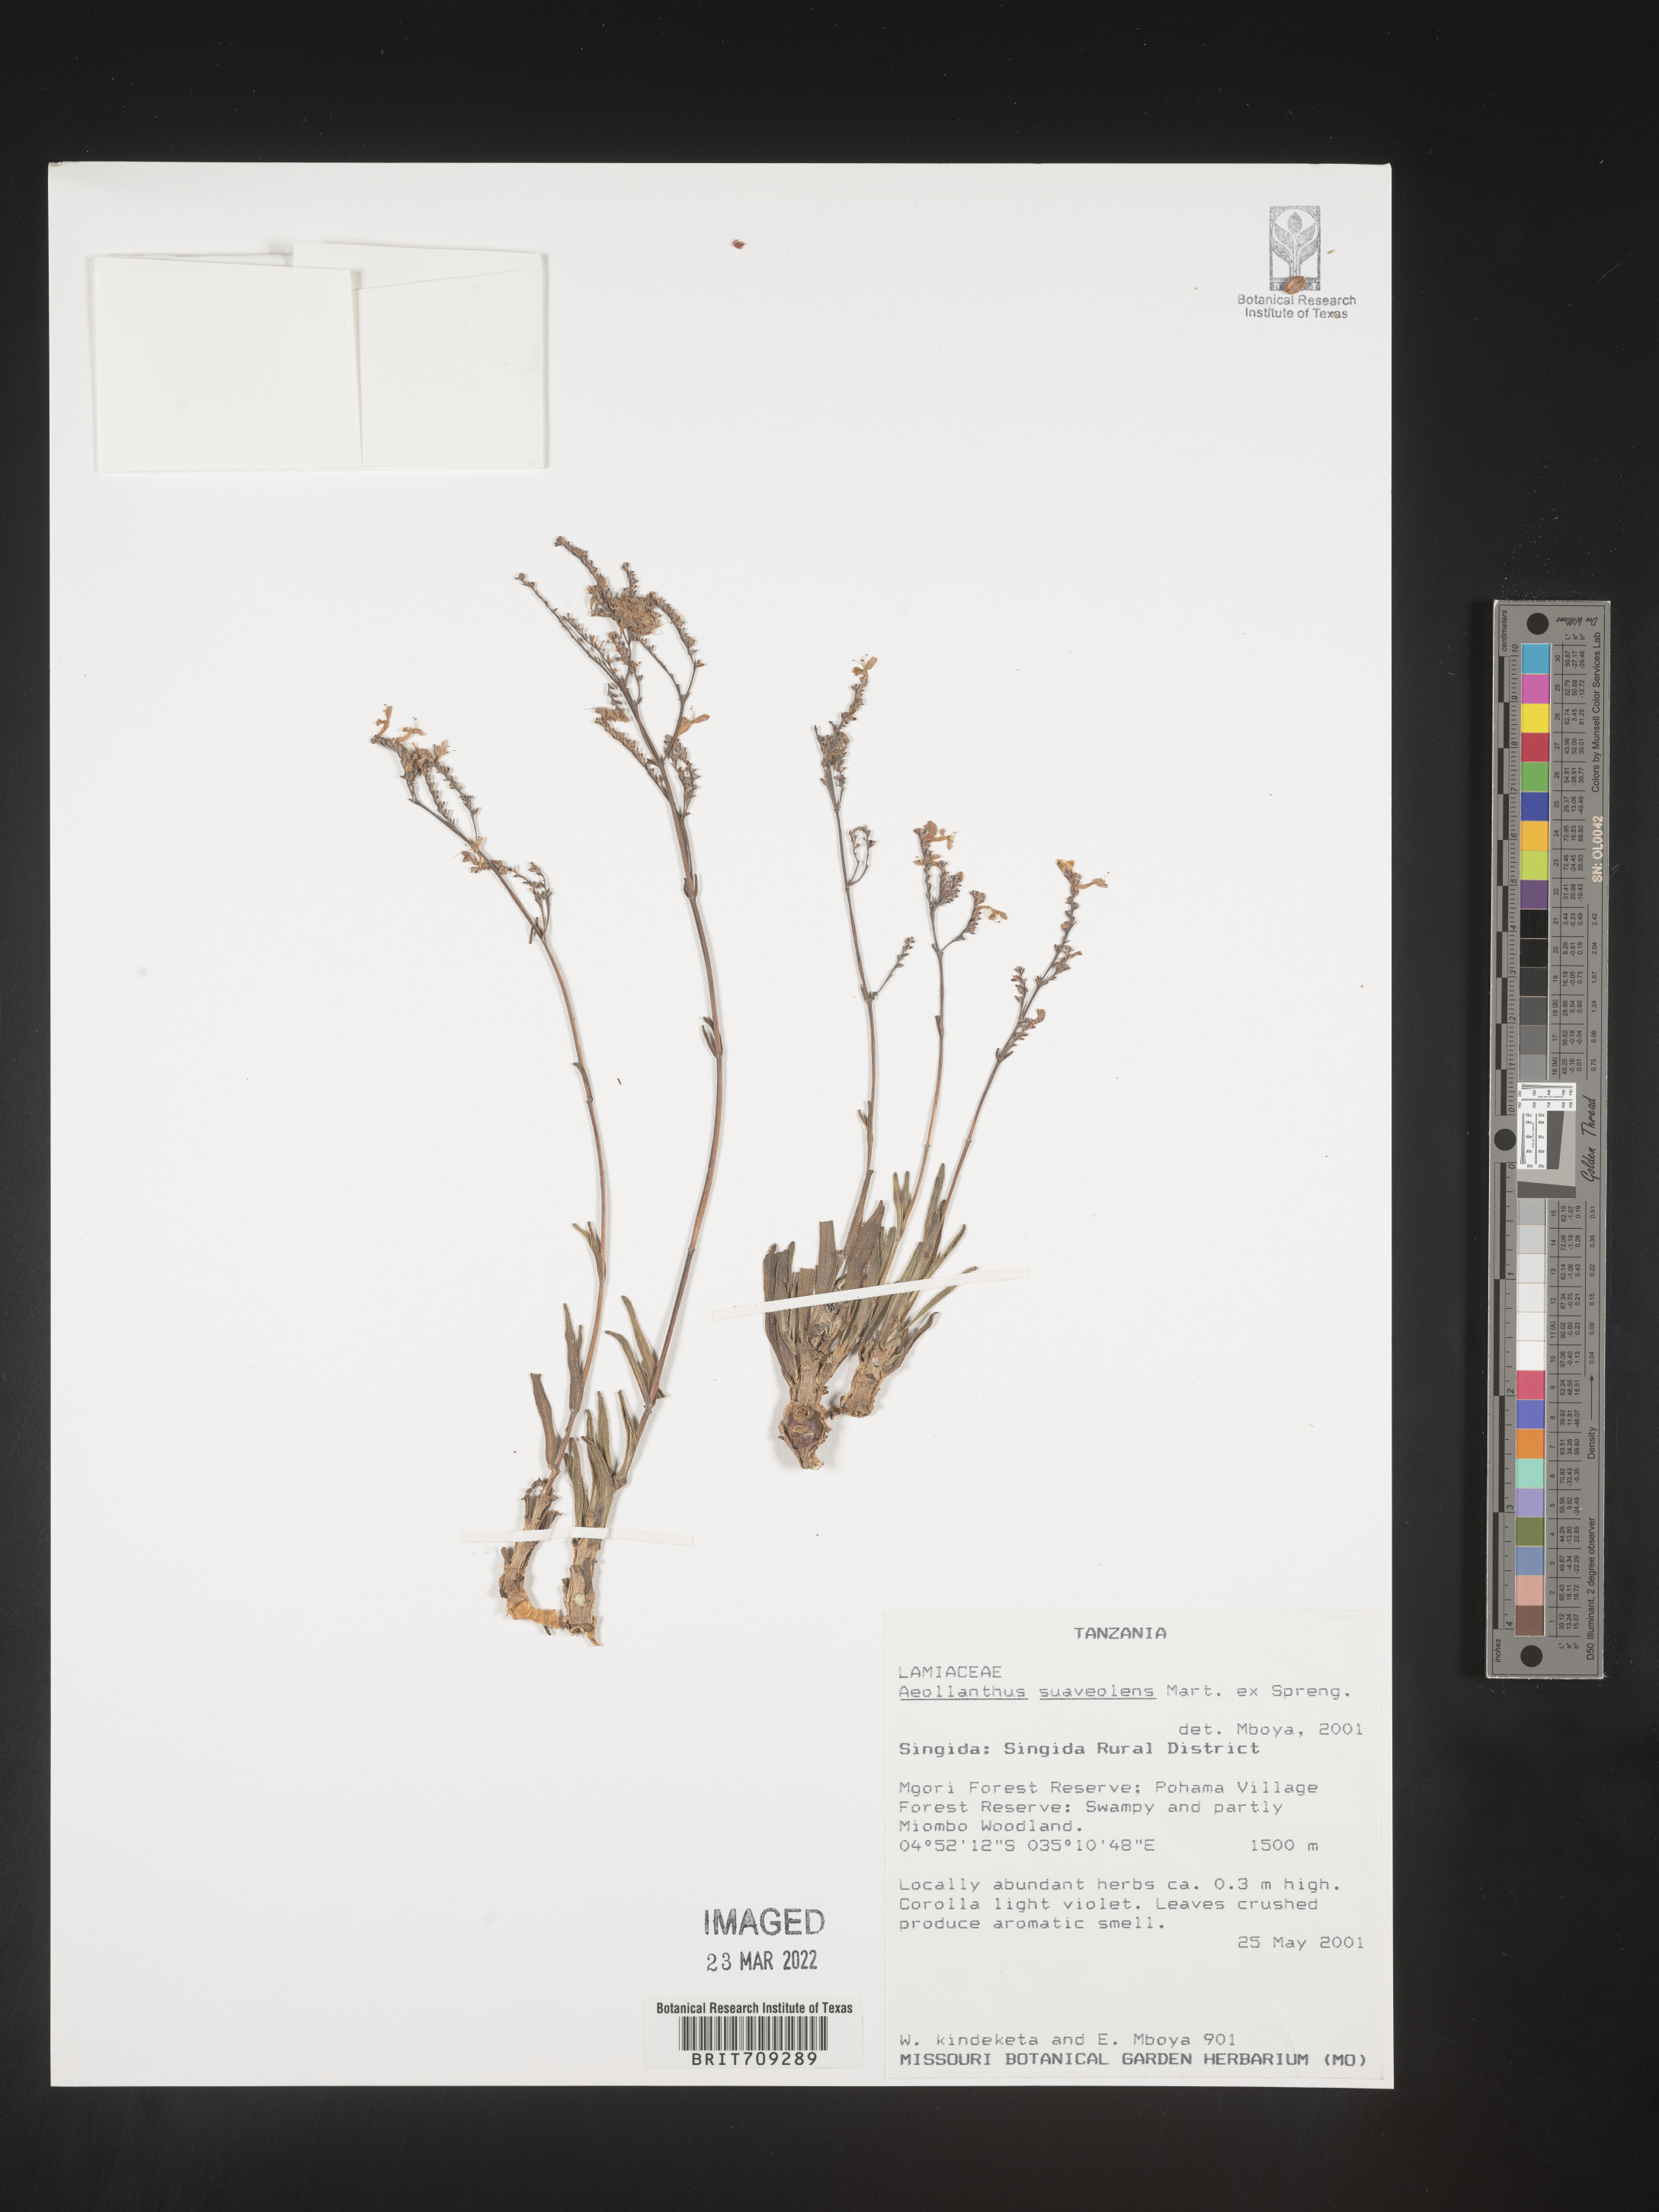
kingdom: Plantae
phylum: Tracheophyta
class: Magnoliopsida
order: Lamiales
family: Lamiaceae
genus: Aeollanthus
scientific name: Aeollanthus
